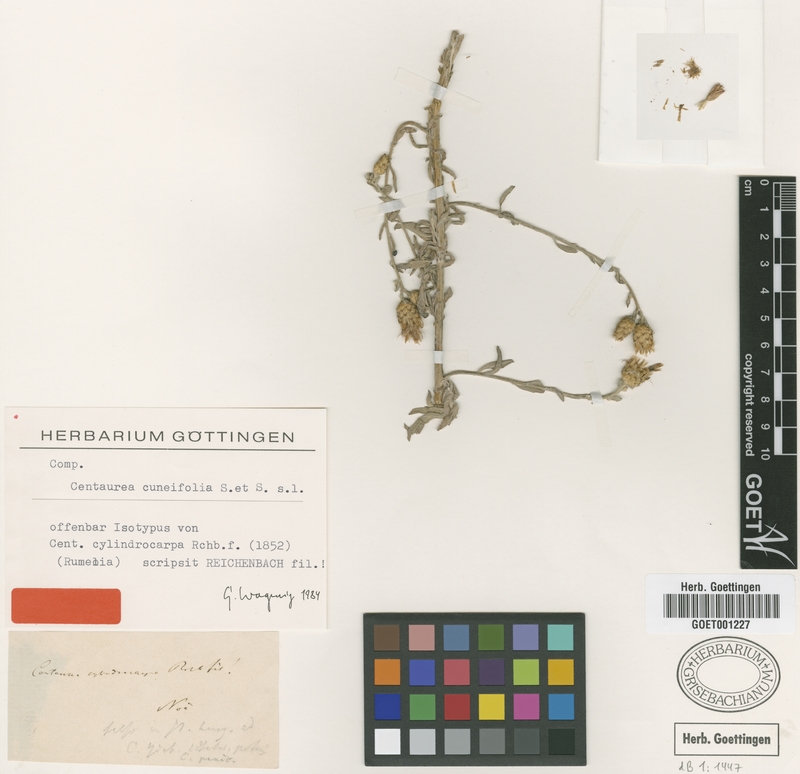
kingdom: Plantae
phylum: Tracheophyta
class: Magnoliopsida
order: Asterales
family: Asteraceae
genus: Centaurea
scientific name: Centaurea cuneifolia
